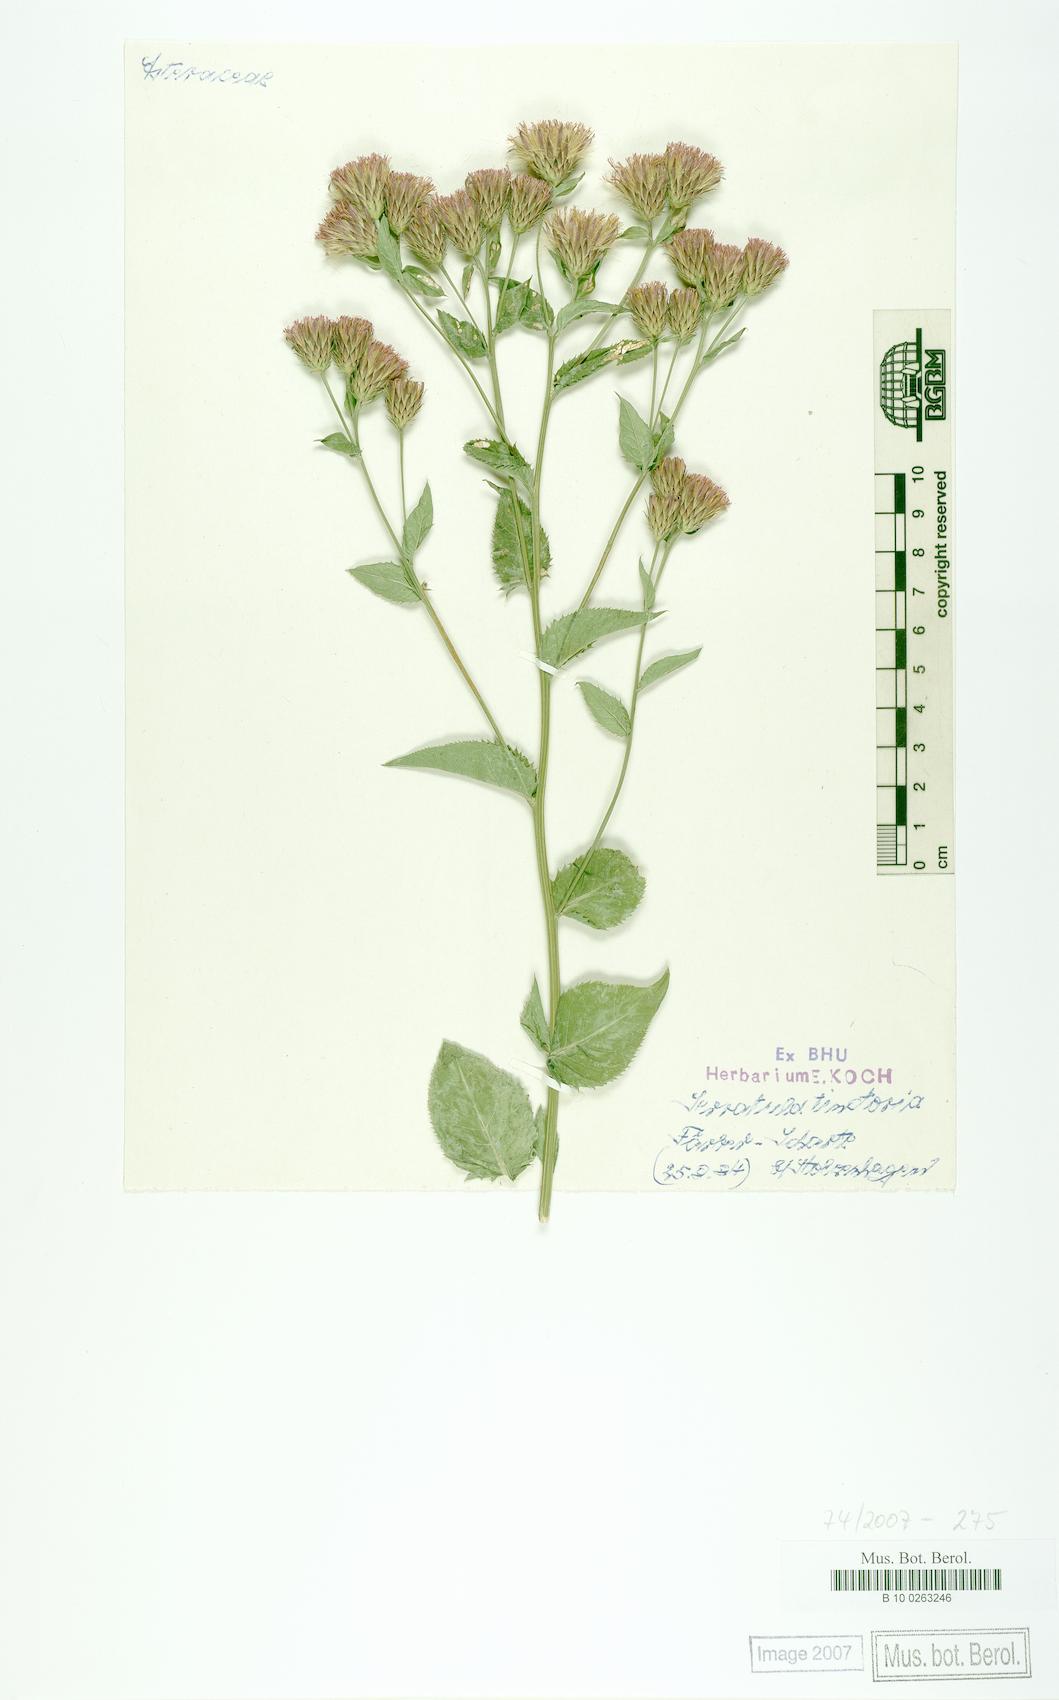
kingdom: Plantae
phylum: Tracheophyta
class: Magnoliopsida
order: Asterales
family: Asteraceae
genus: Serratula
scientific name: Serratula tinctoria
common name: Saw-wort
